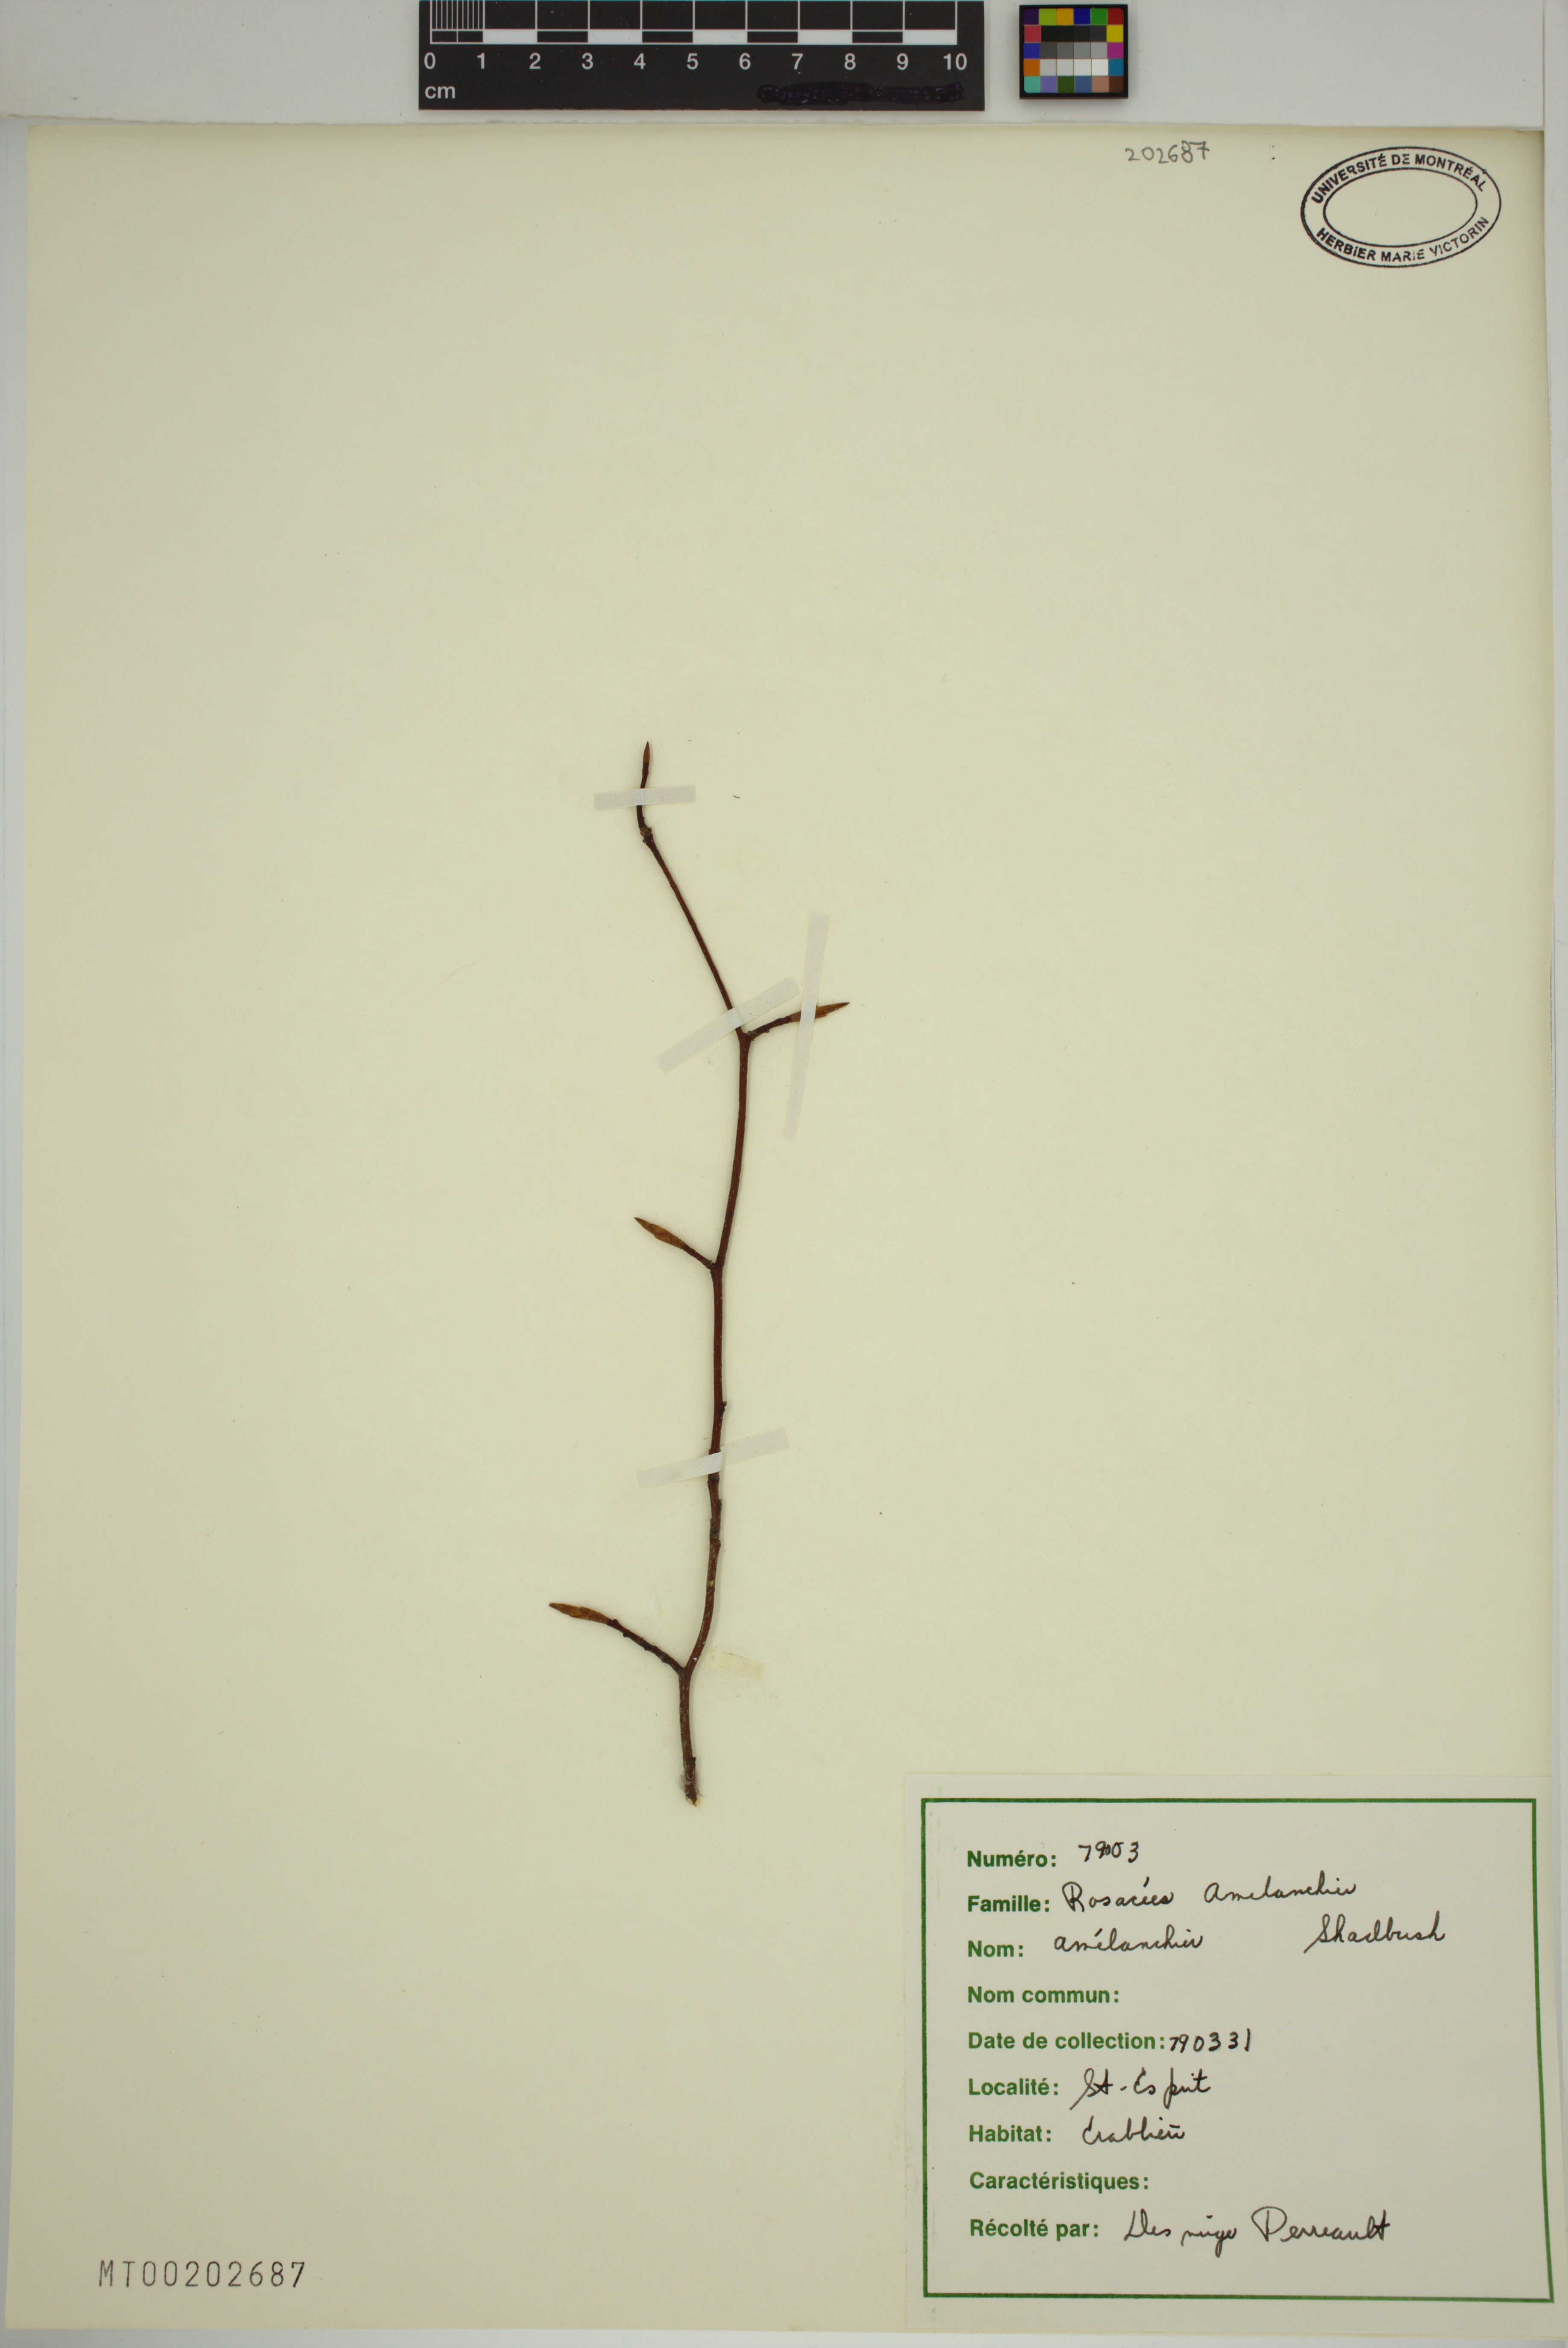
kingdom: Plantae
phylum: Tracheophyta
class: Magnoliopsida
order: Rosales
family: Rosaceae
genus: Amelanchier
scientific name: Amelanchier
